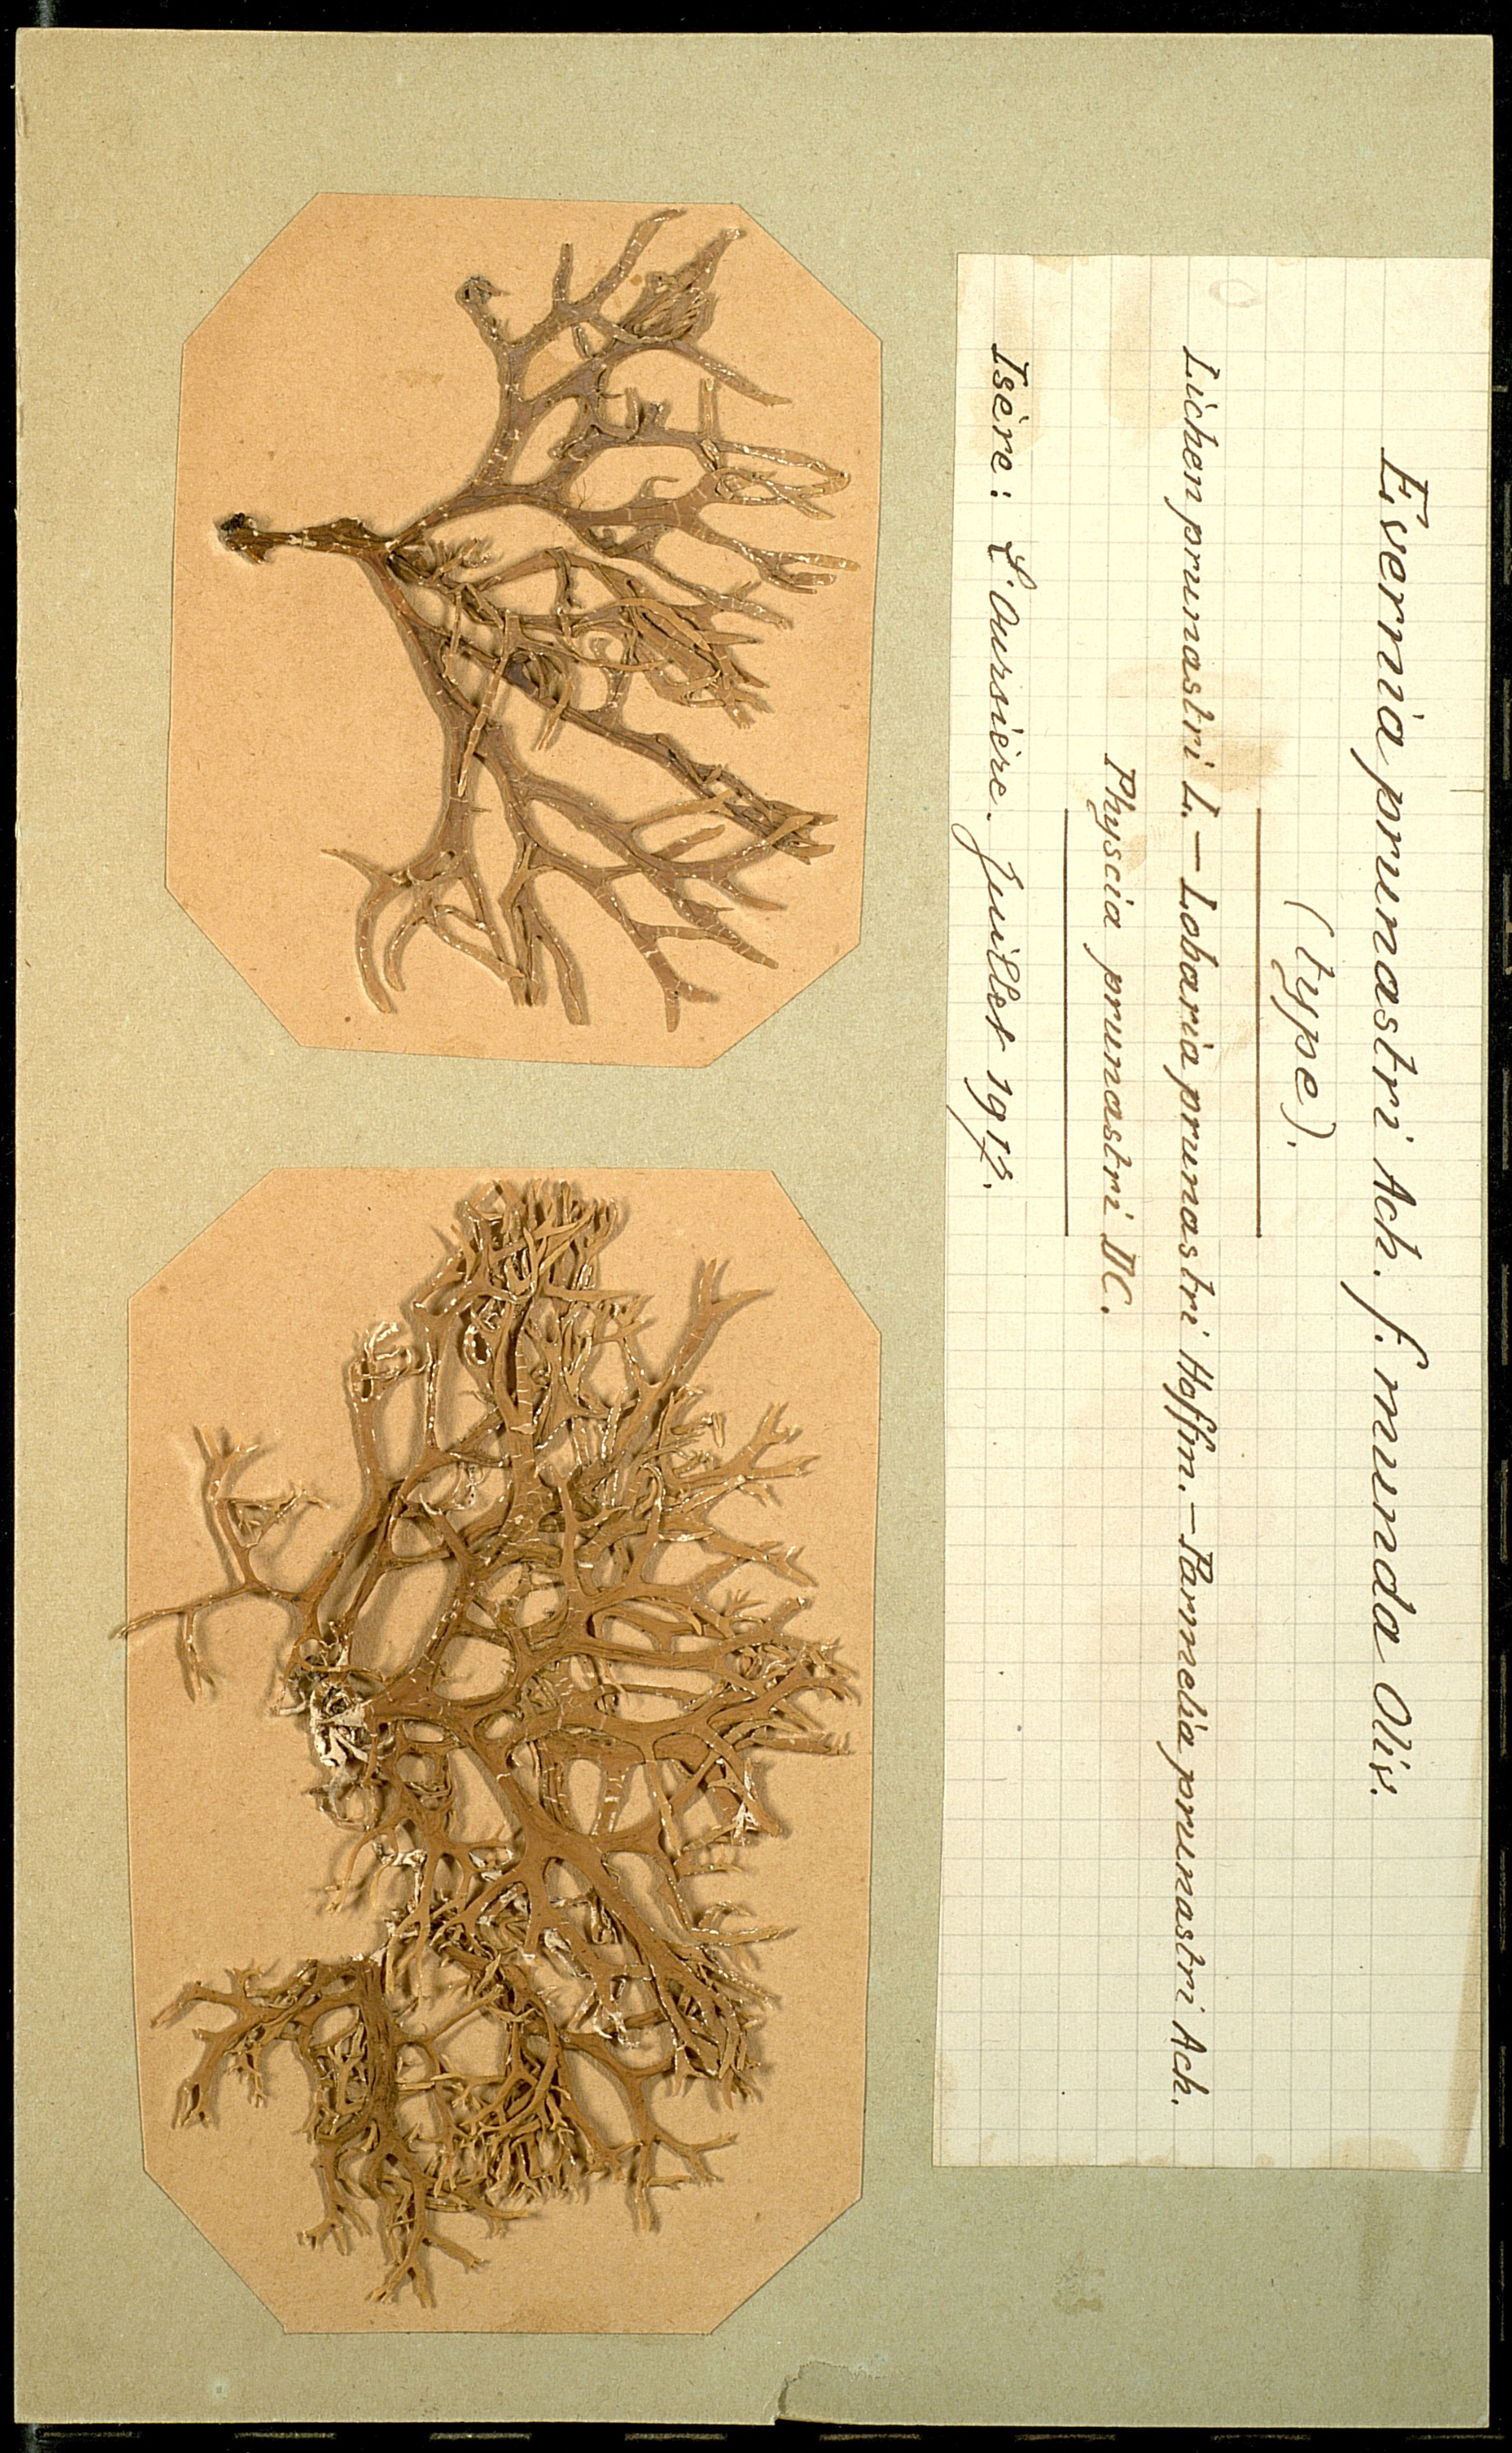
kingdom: Fungi
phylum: Ascomycota
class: Lecanoromycetes
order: Lecanorales
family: Parmeliaceae
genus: Evernia
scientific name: Evernia prunastri
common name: Oak moss
